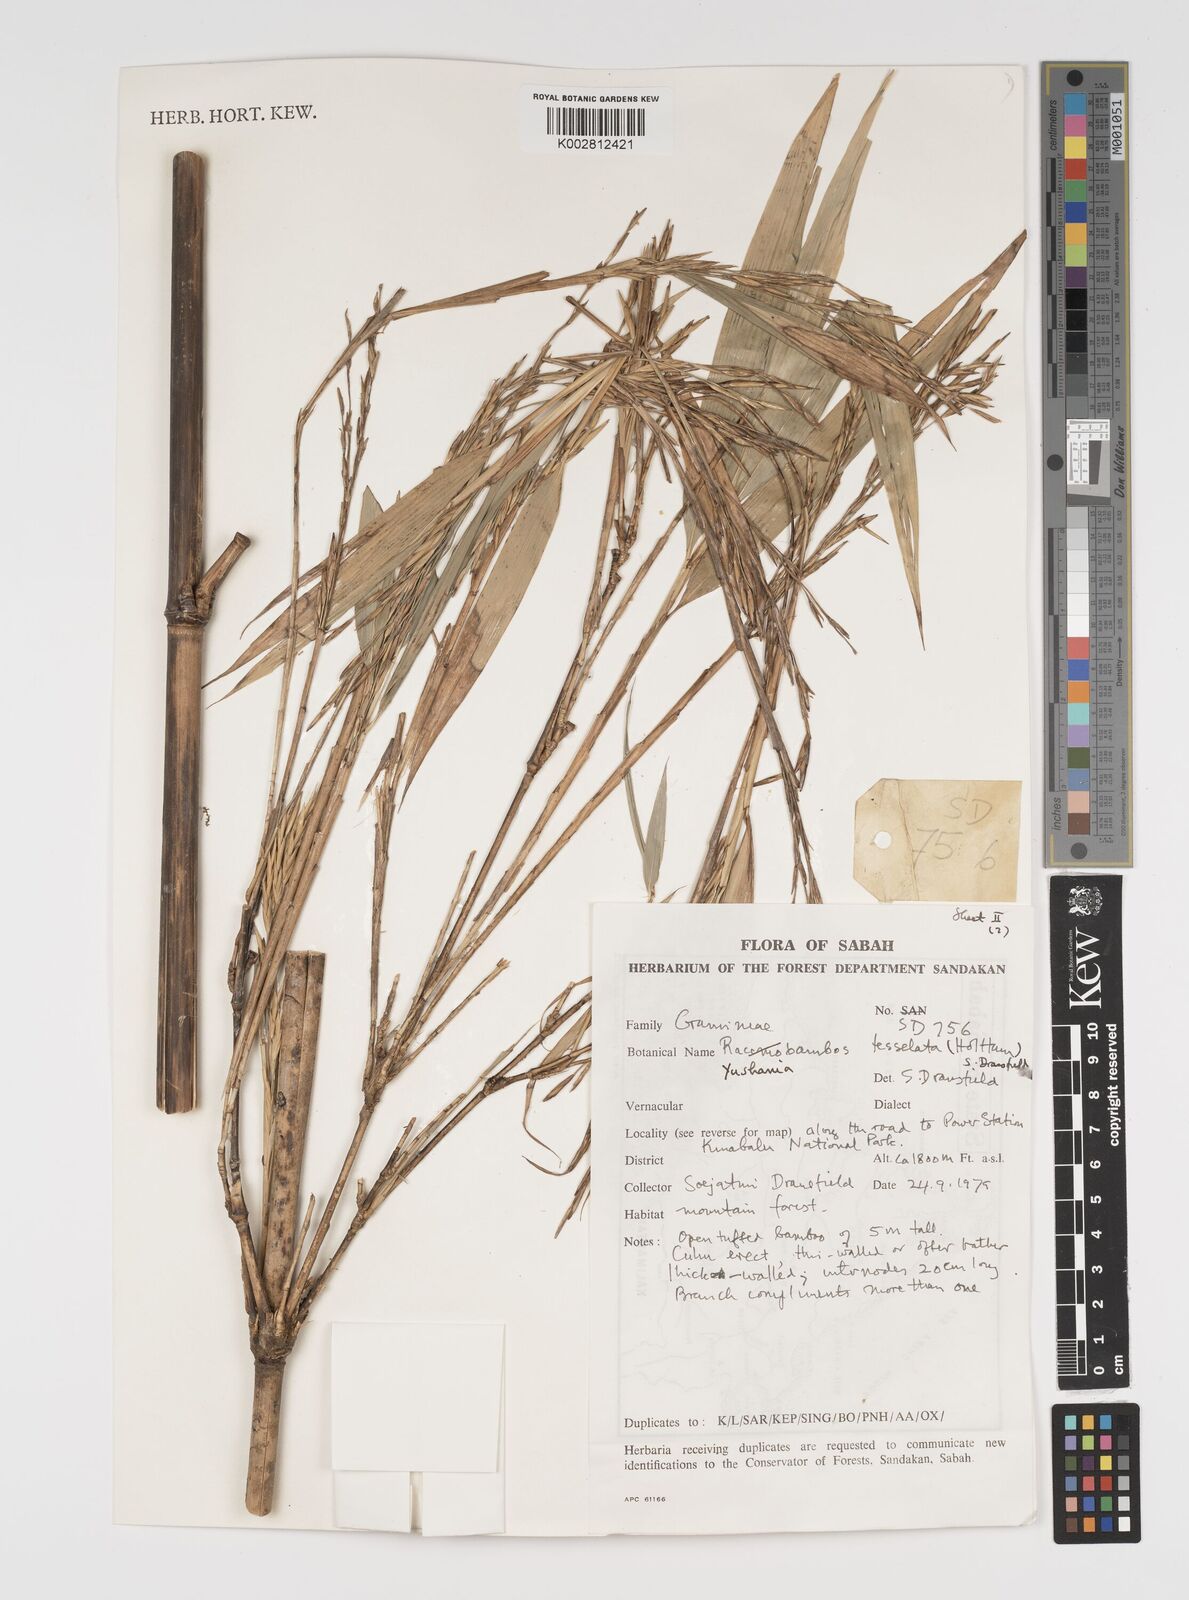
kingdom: Plantae
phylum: Tracheophyta
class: Liliopsida
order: Poales
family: Poaceae
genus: Yushania
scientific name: Yushania tessellata
